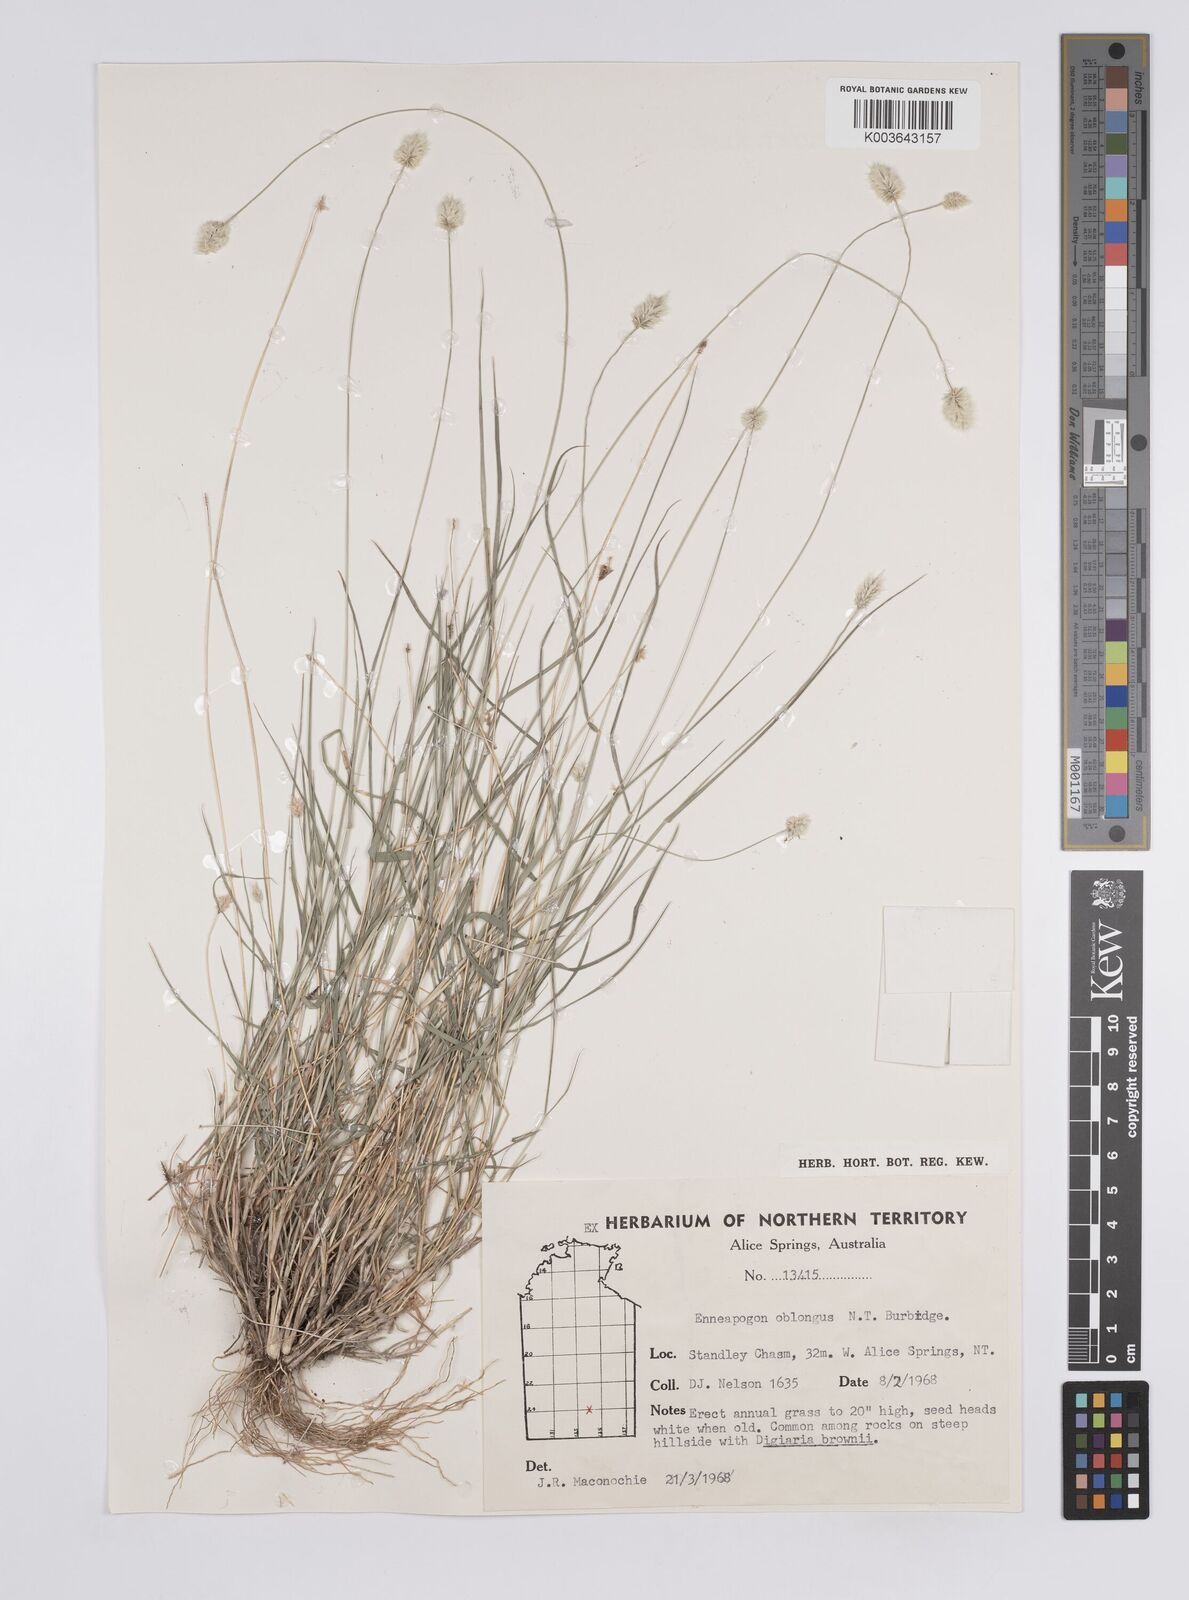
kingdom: Plantae
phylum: Tracheophyta
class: Liliopsida
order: Poales
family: Poaceae
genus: Enneapogon
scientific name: Enneapogon lindleyanus
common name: Conetop nineawn
